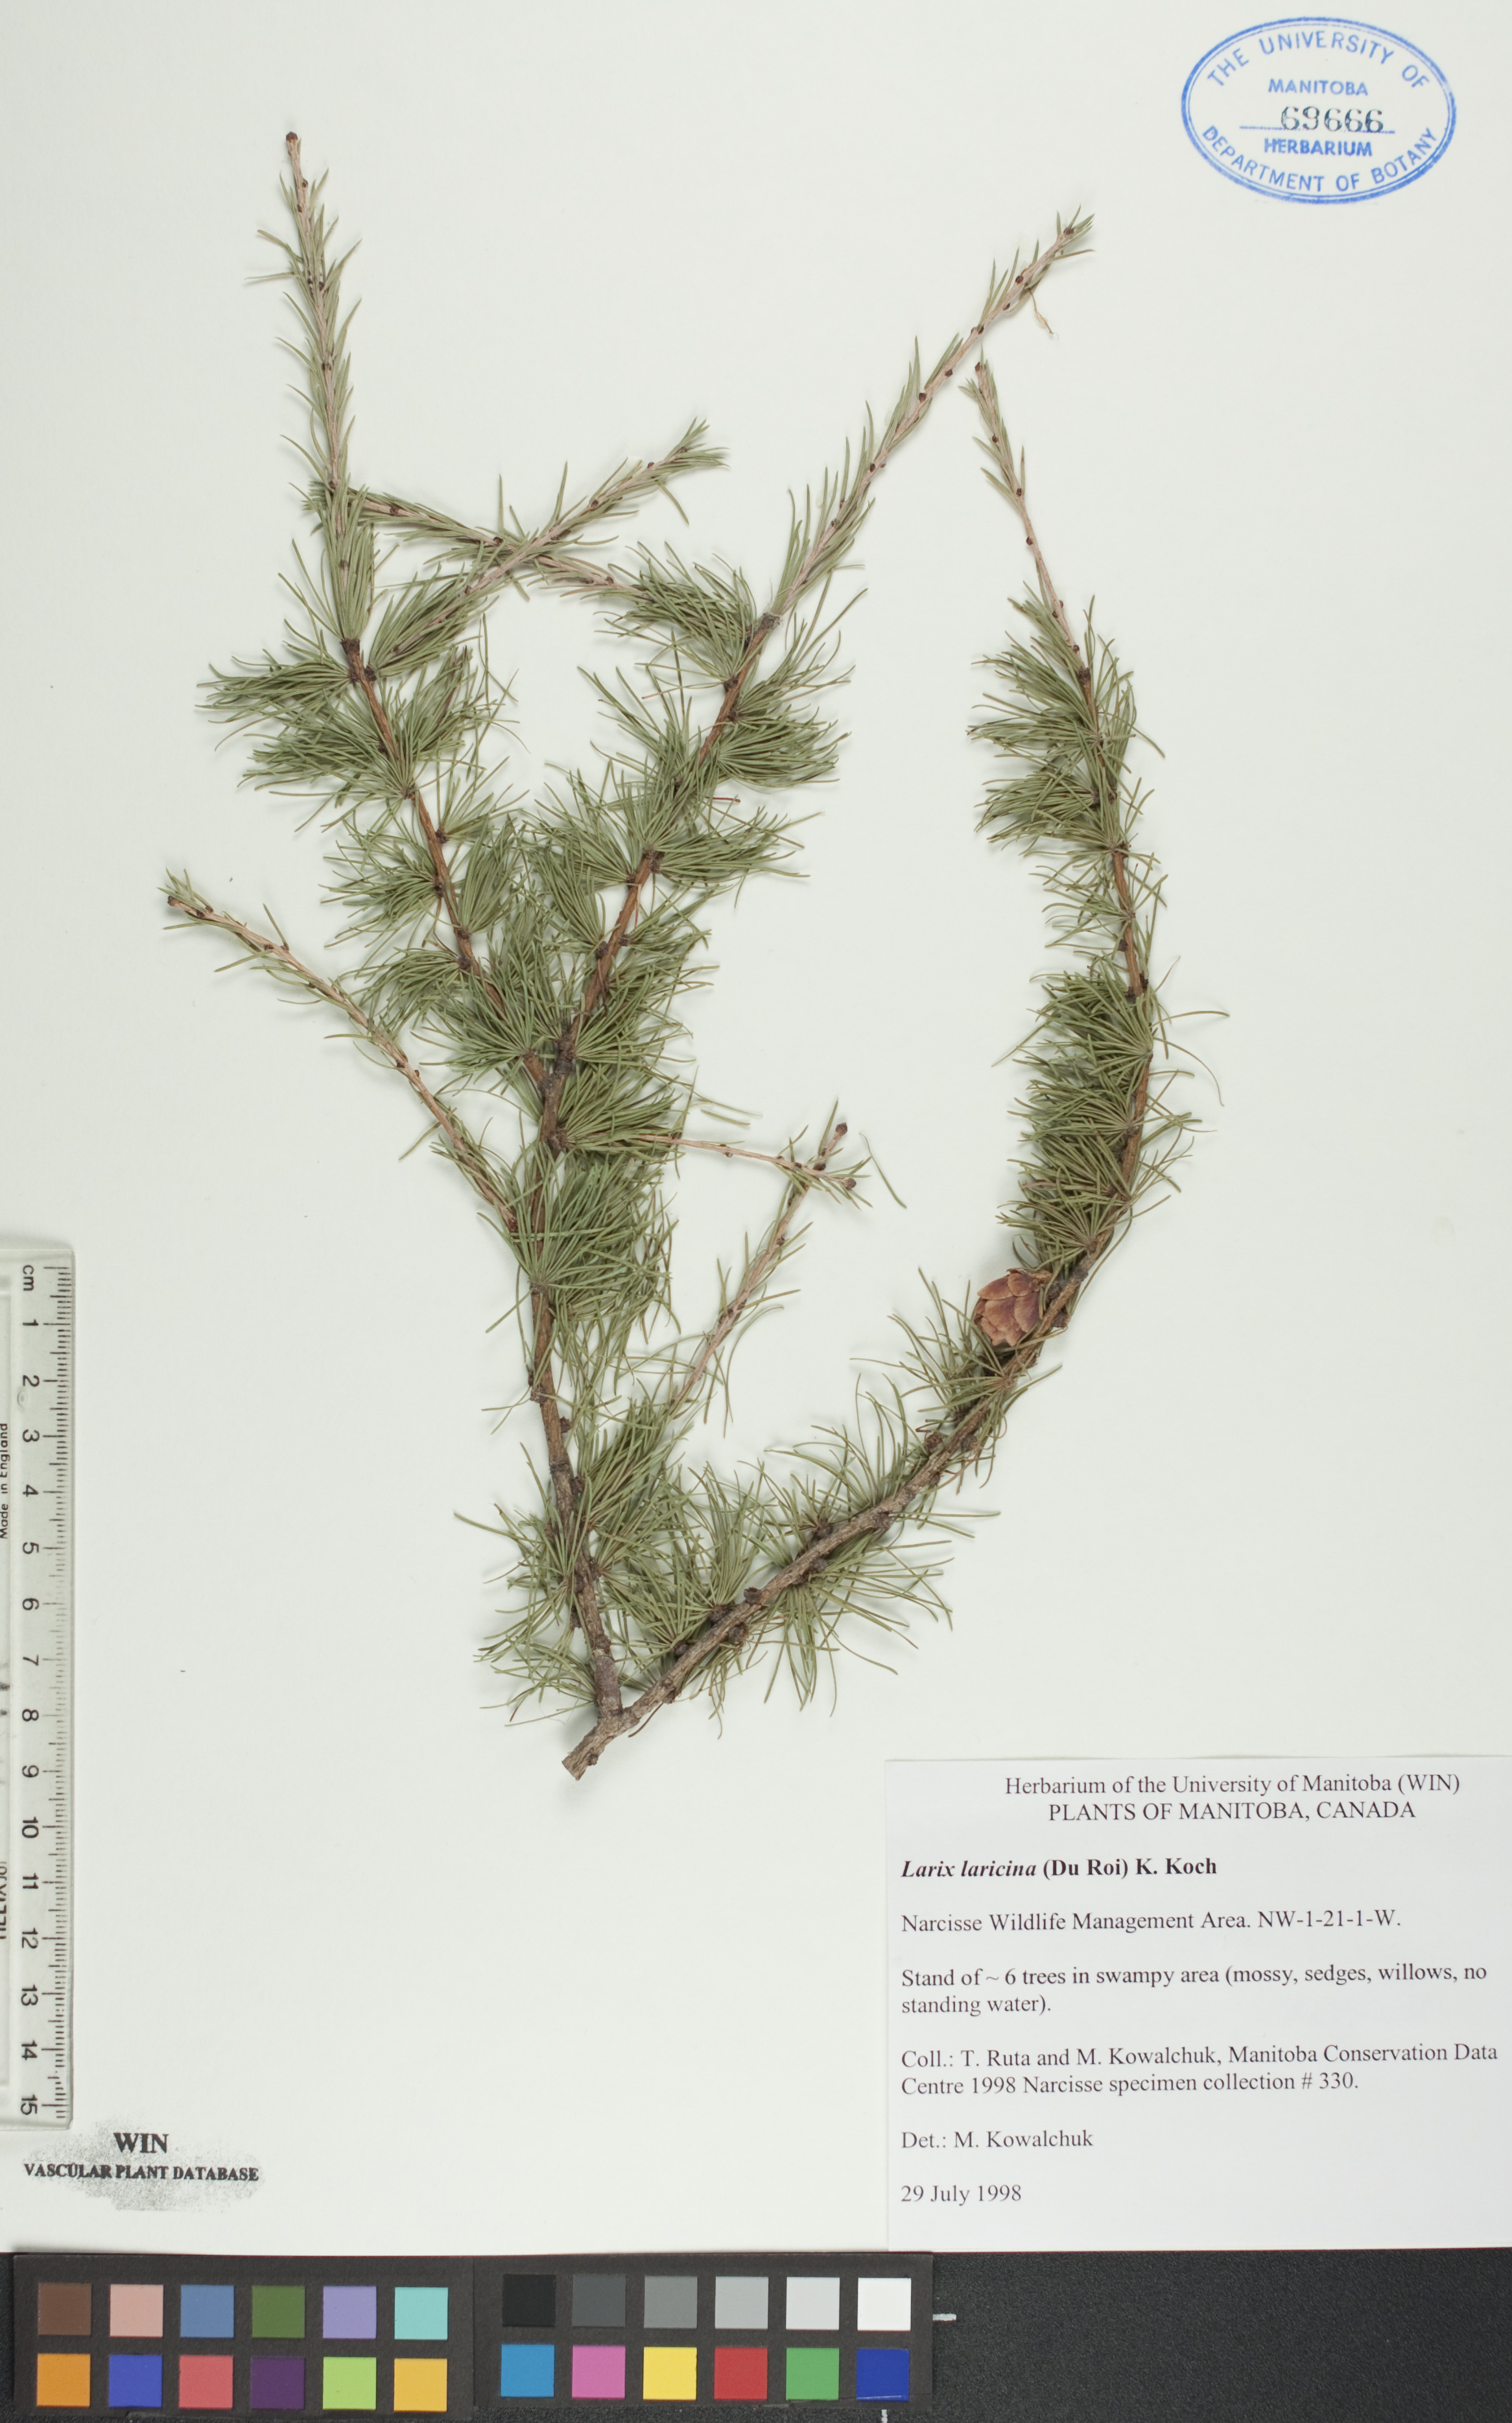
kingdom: Plantae
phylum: Tracheophyta
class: Pinopsida
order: Pinales
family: Pinaceae
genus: Larix
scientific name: Larix laricina
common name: American larch
